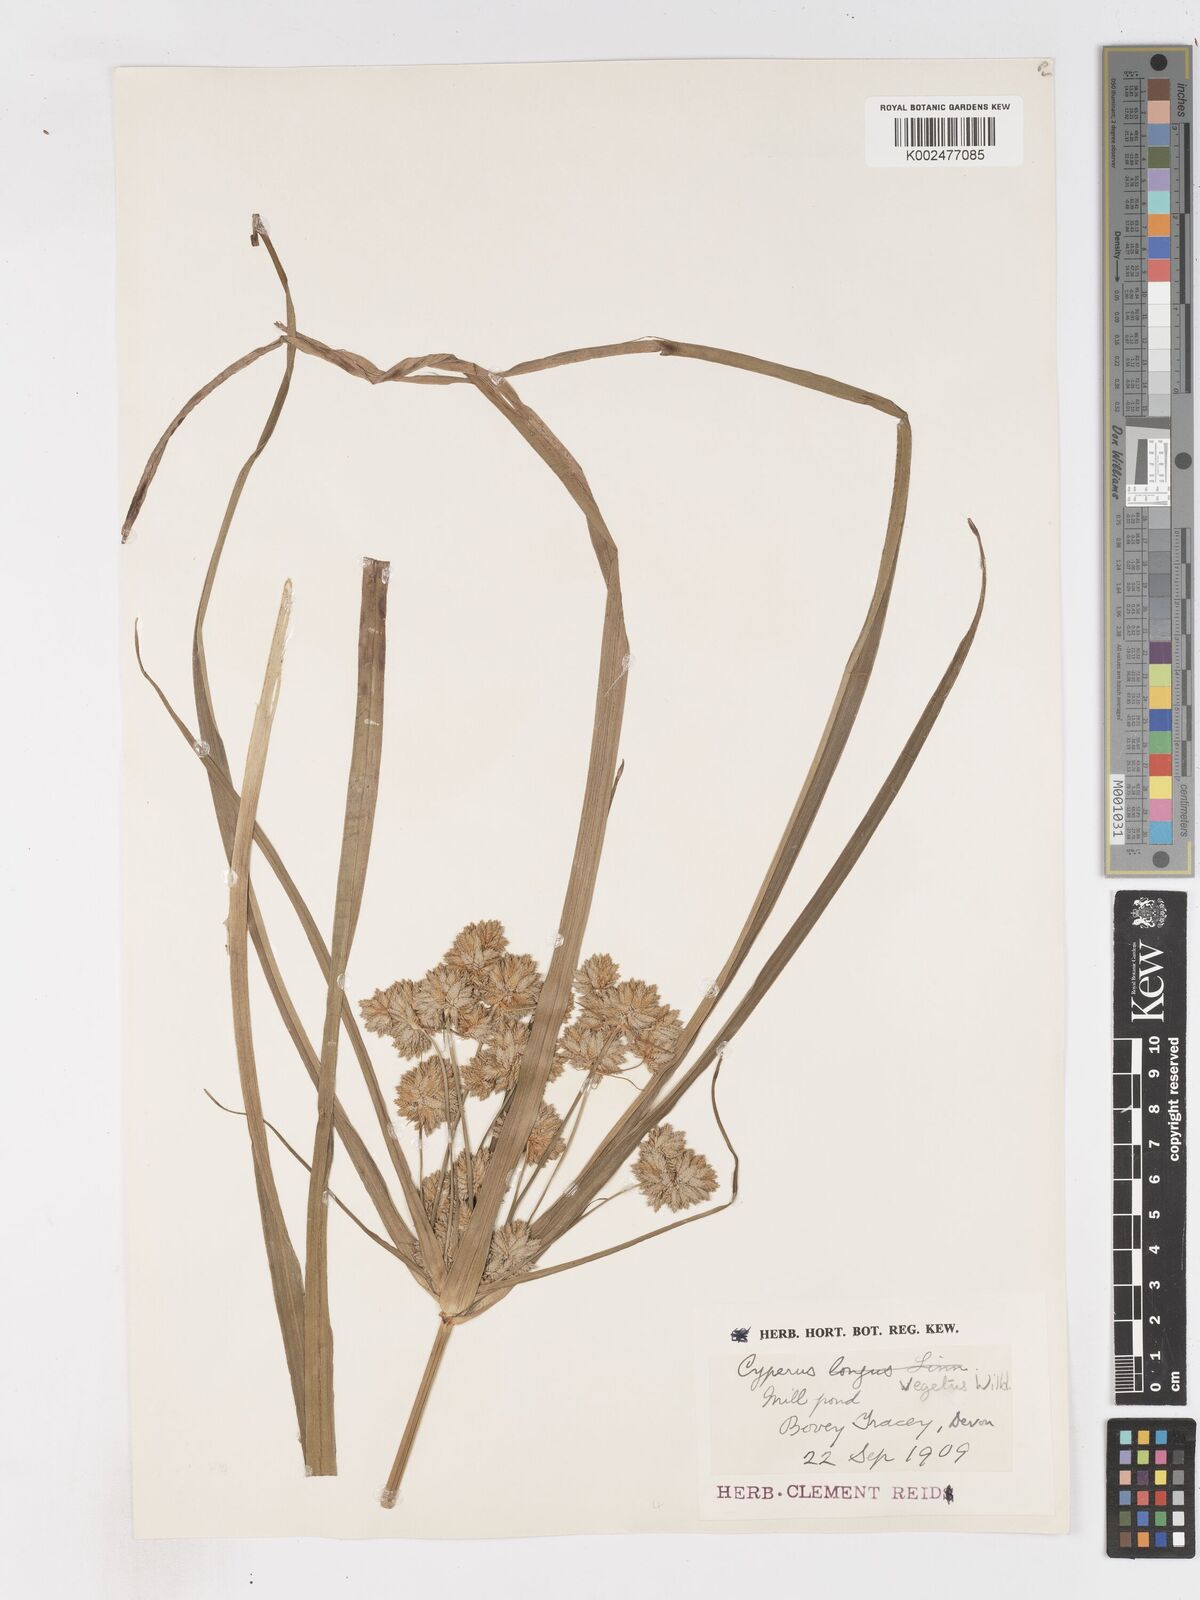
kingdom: Plantae
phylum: Tracheophyta
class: Liliopsida
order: Poales
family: Cyperaceae
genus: Cyperus
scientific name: Cyperus eragrostis
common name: Tall flatsedge
